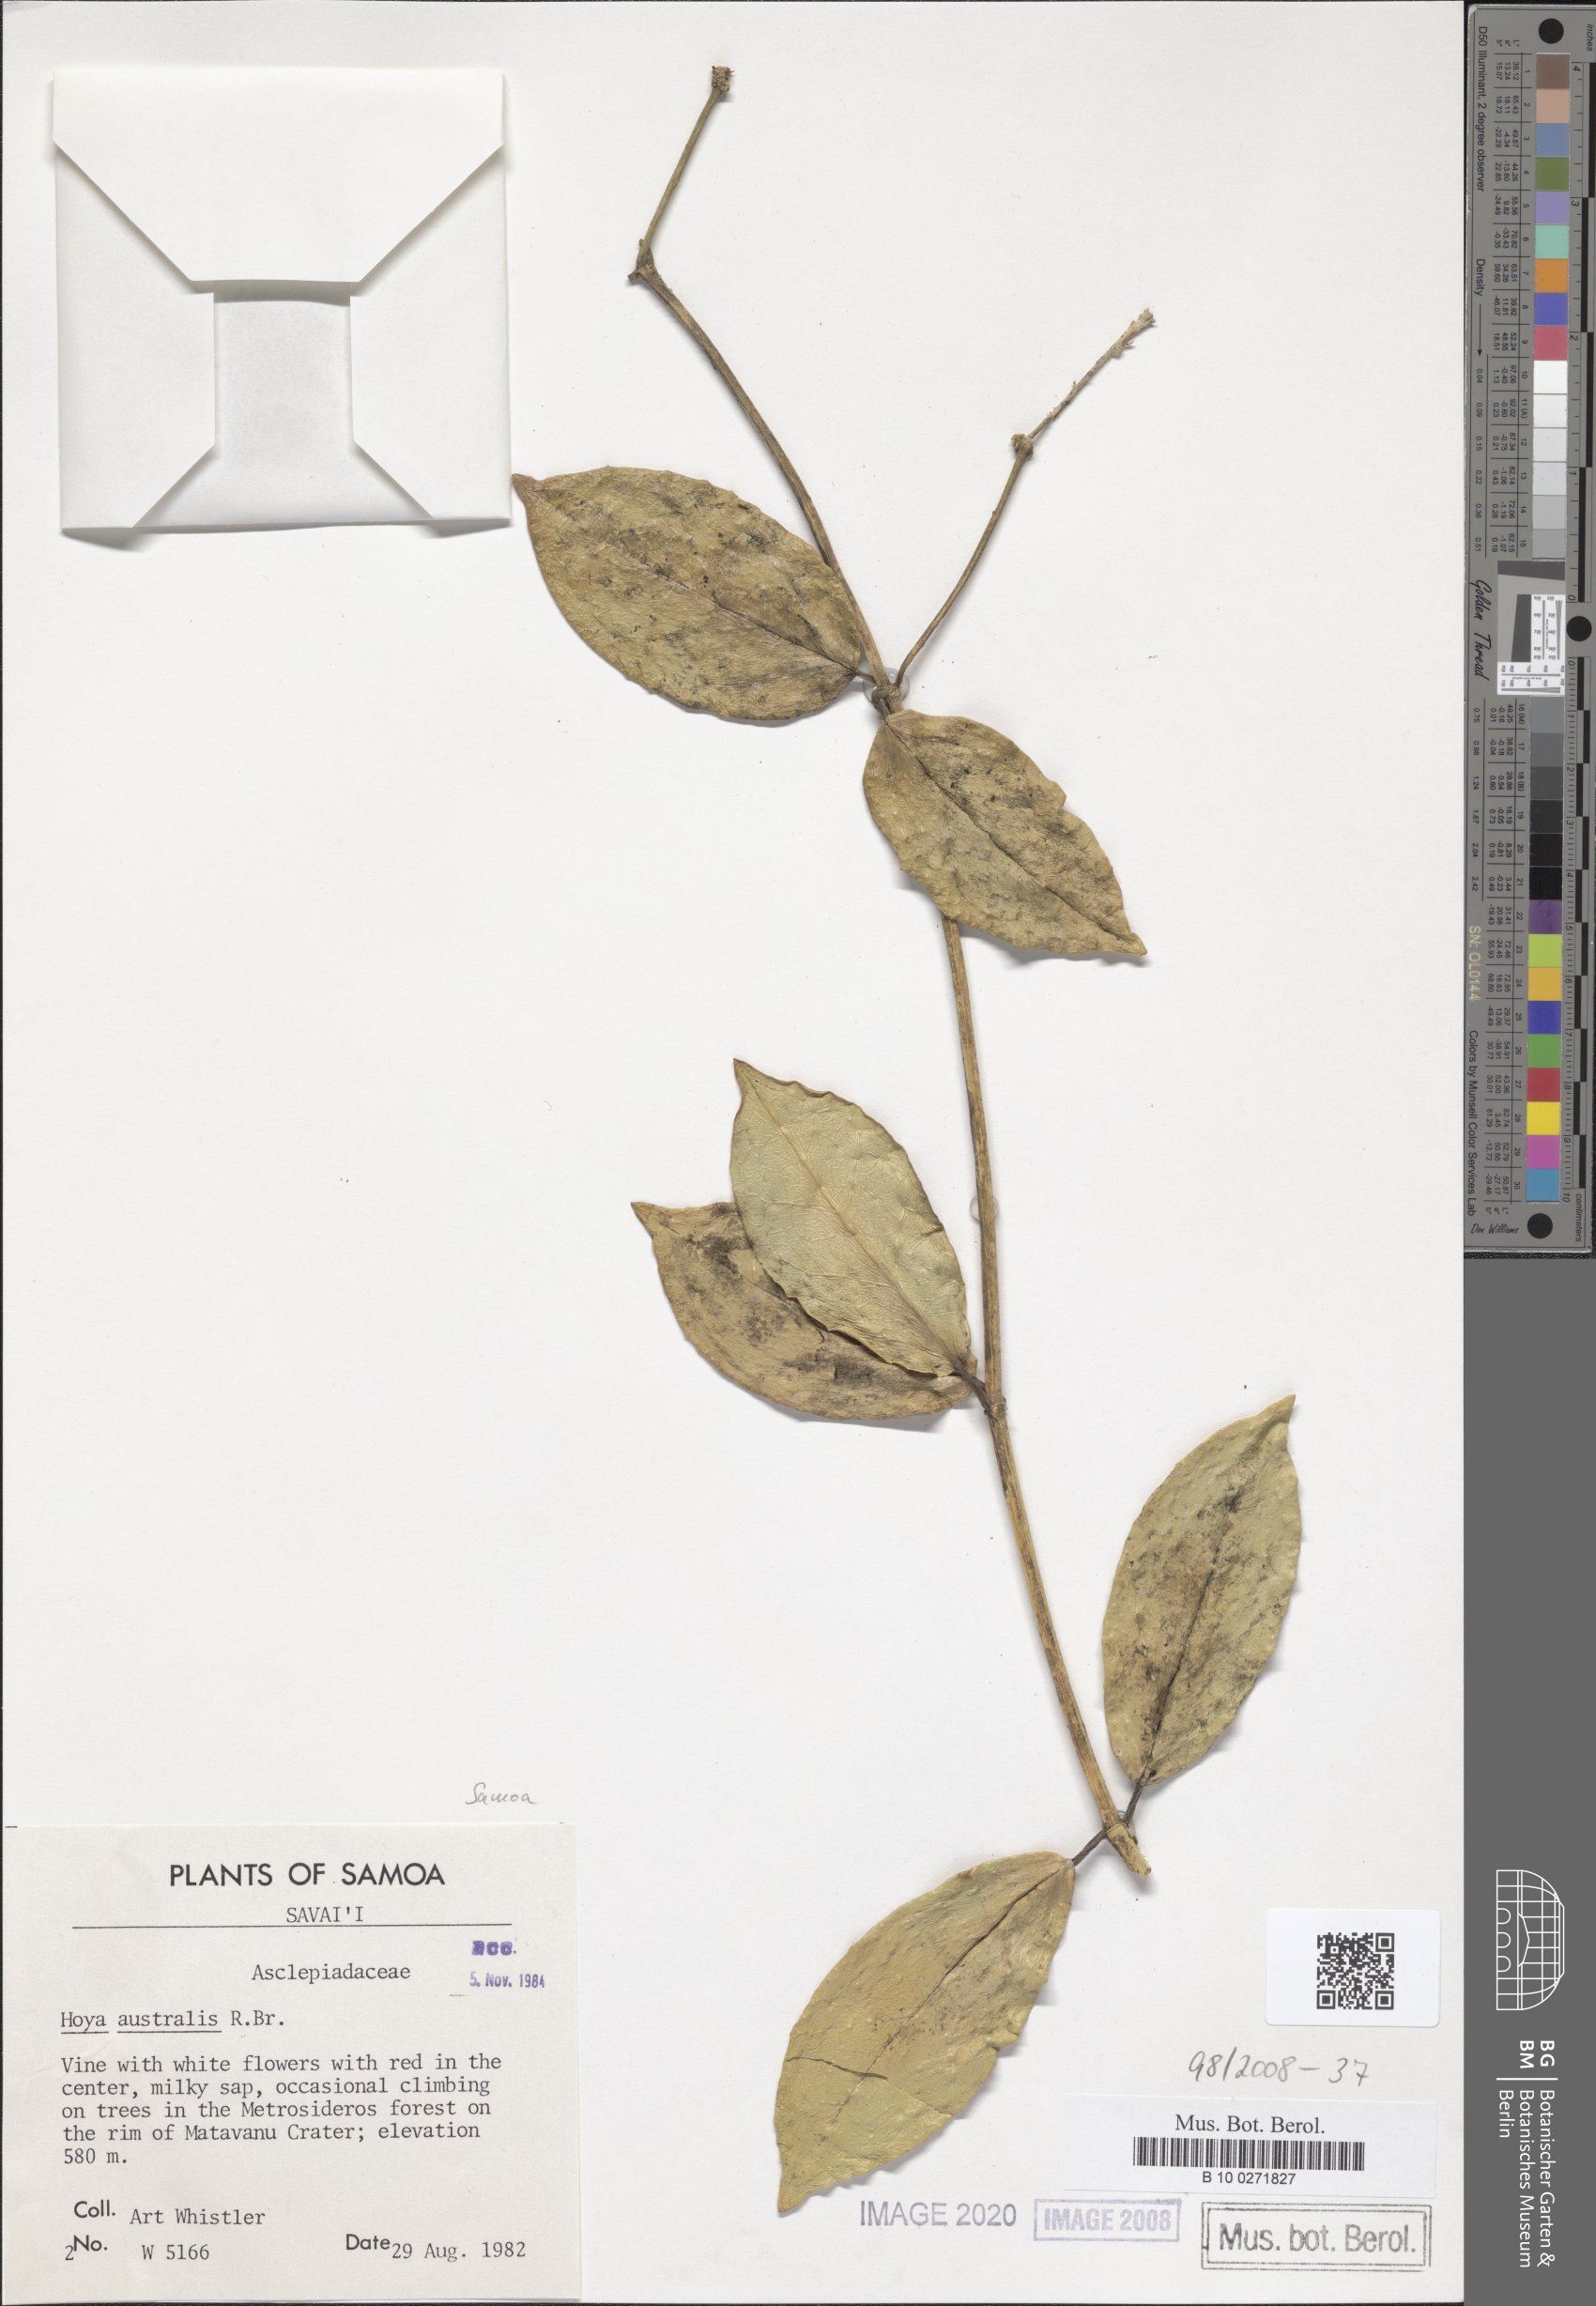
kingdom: Plantae
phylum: Tracheophyta
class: Magnoliopsida
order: Gentianales
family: Apocynaceae
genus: Hoya
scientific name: Hoya australis
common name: Wax flower
